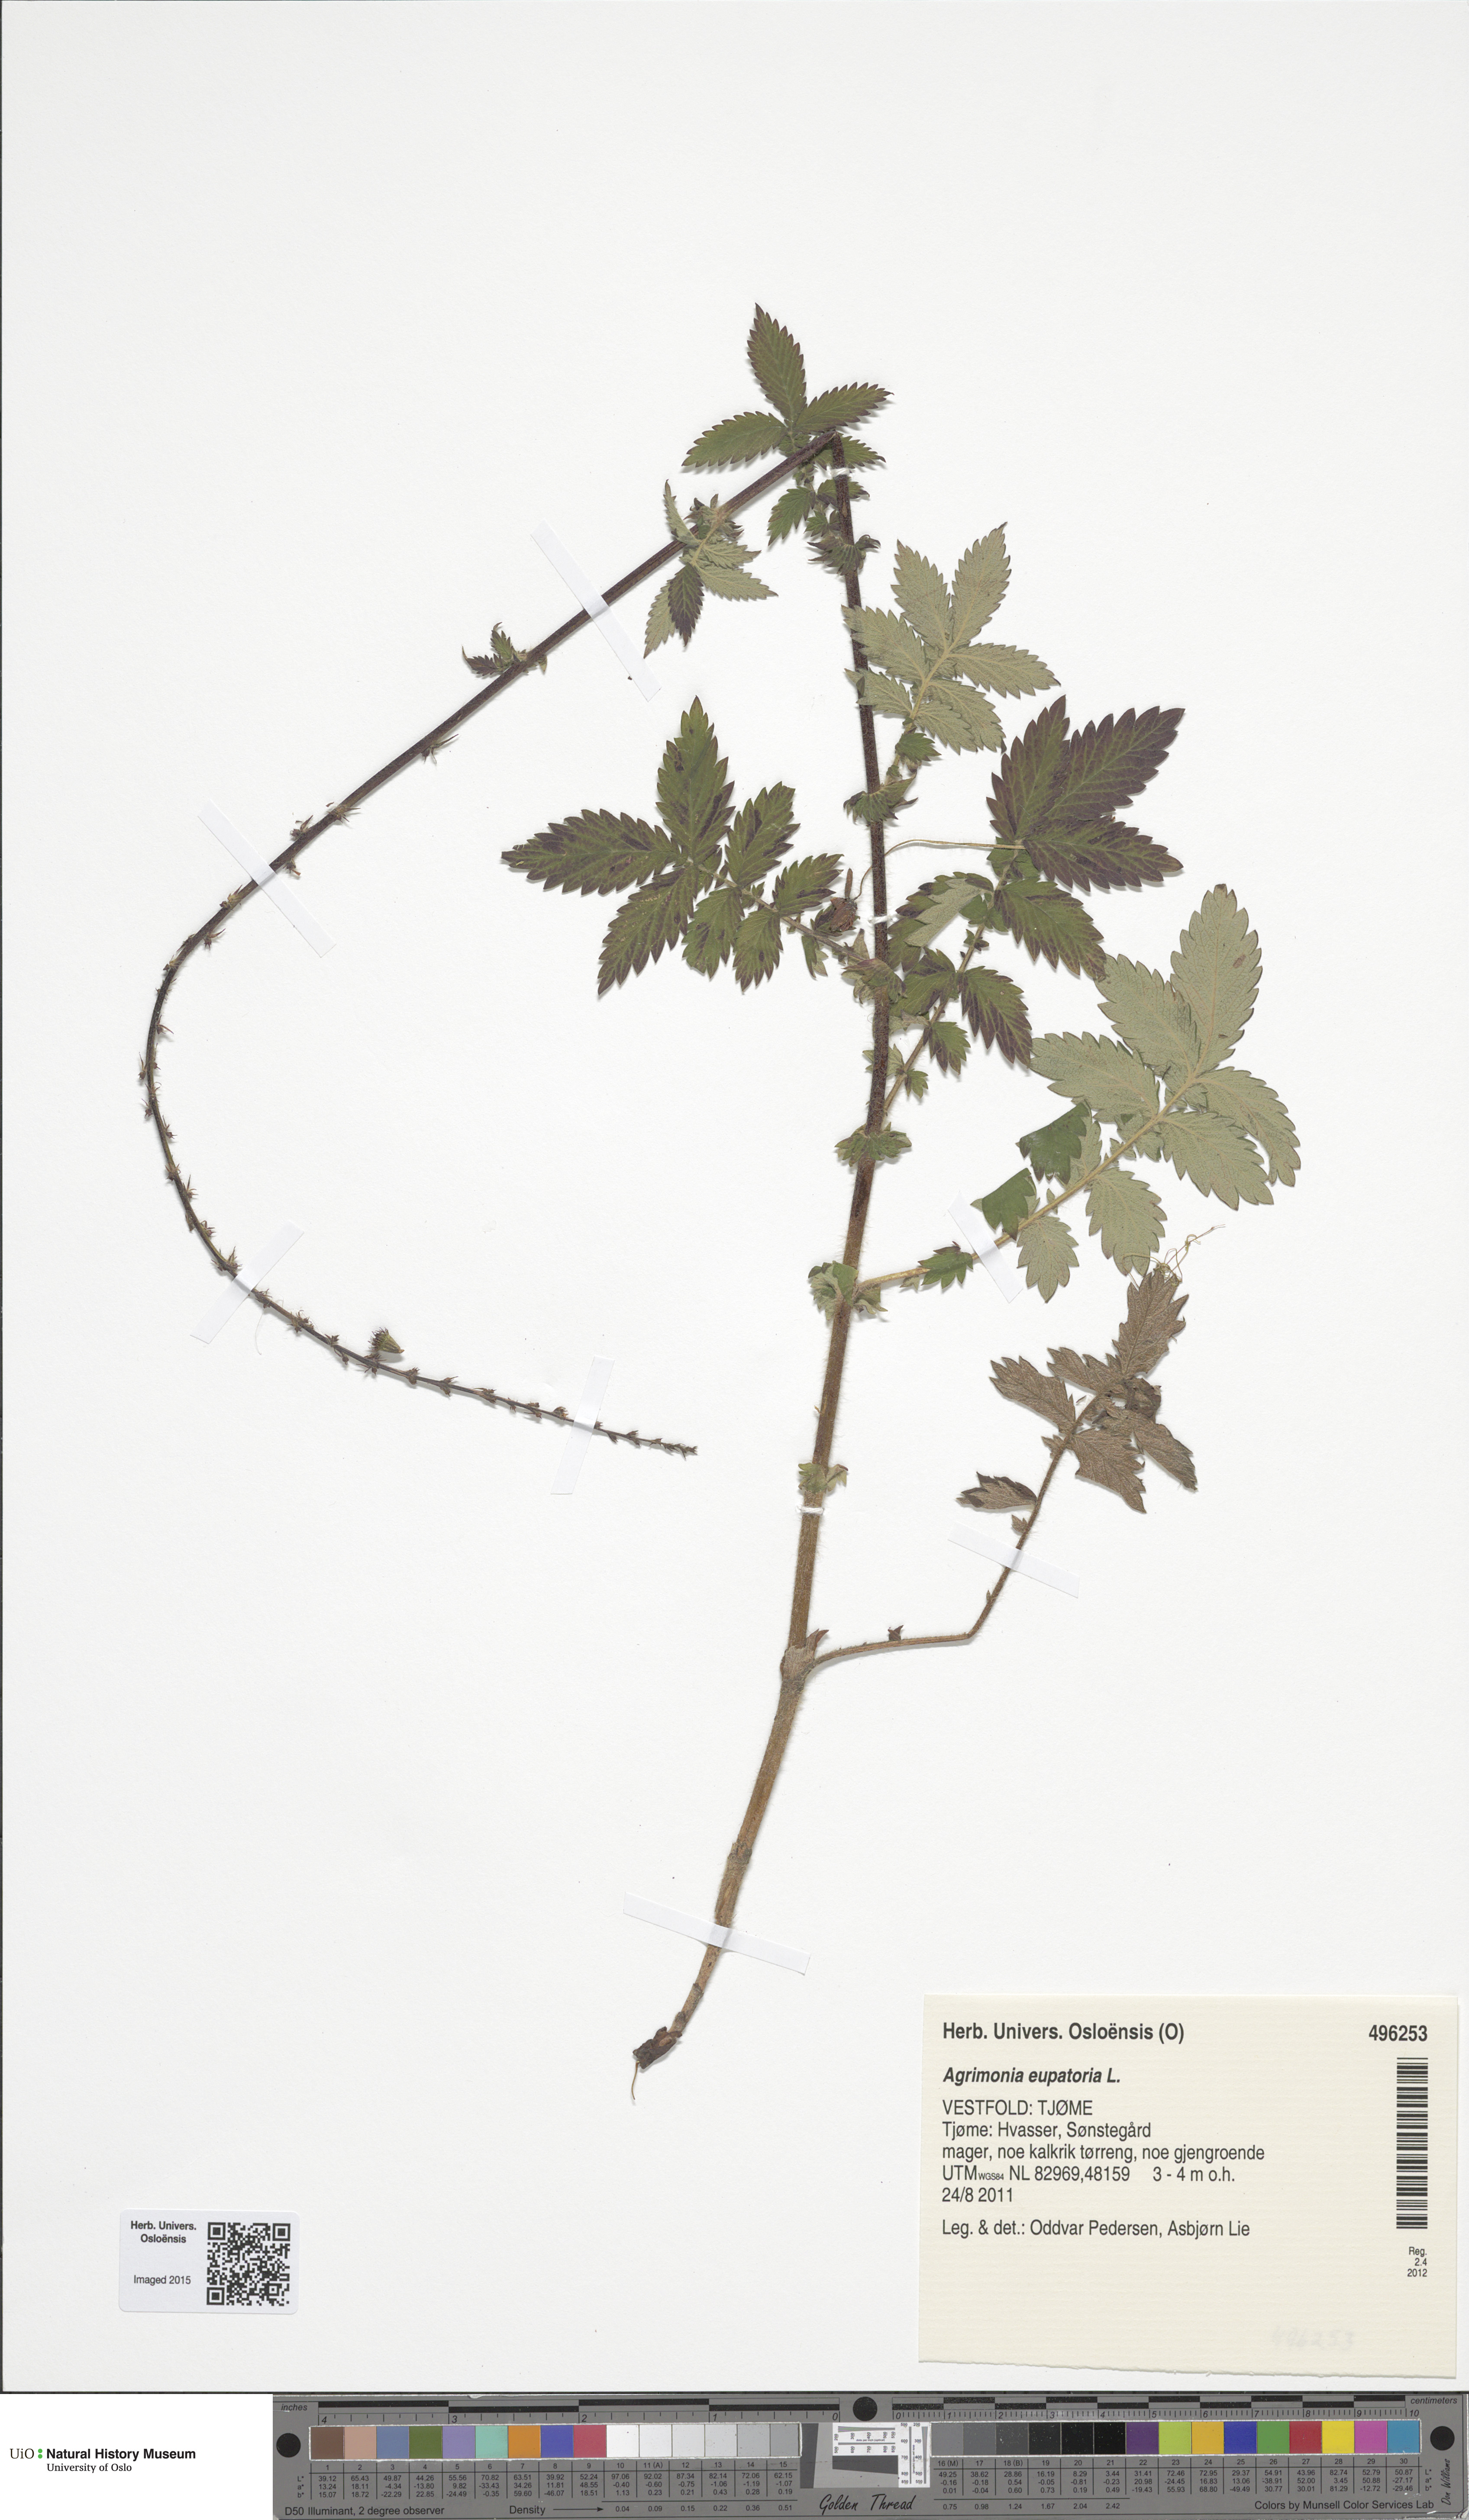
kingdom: Plantae
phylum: Tracheophyta
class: Magnoliopsida
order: Rosales
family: Rosaceae
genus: Agrimonia
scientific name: Agrimonia eupatoria
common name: Agrimony
